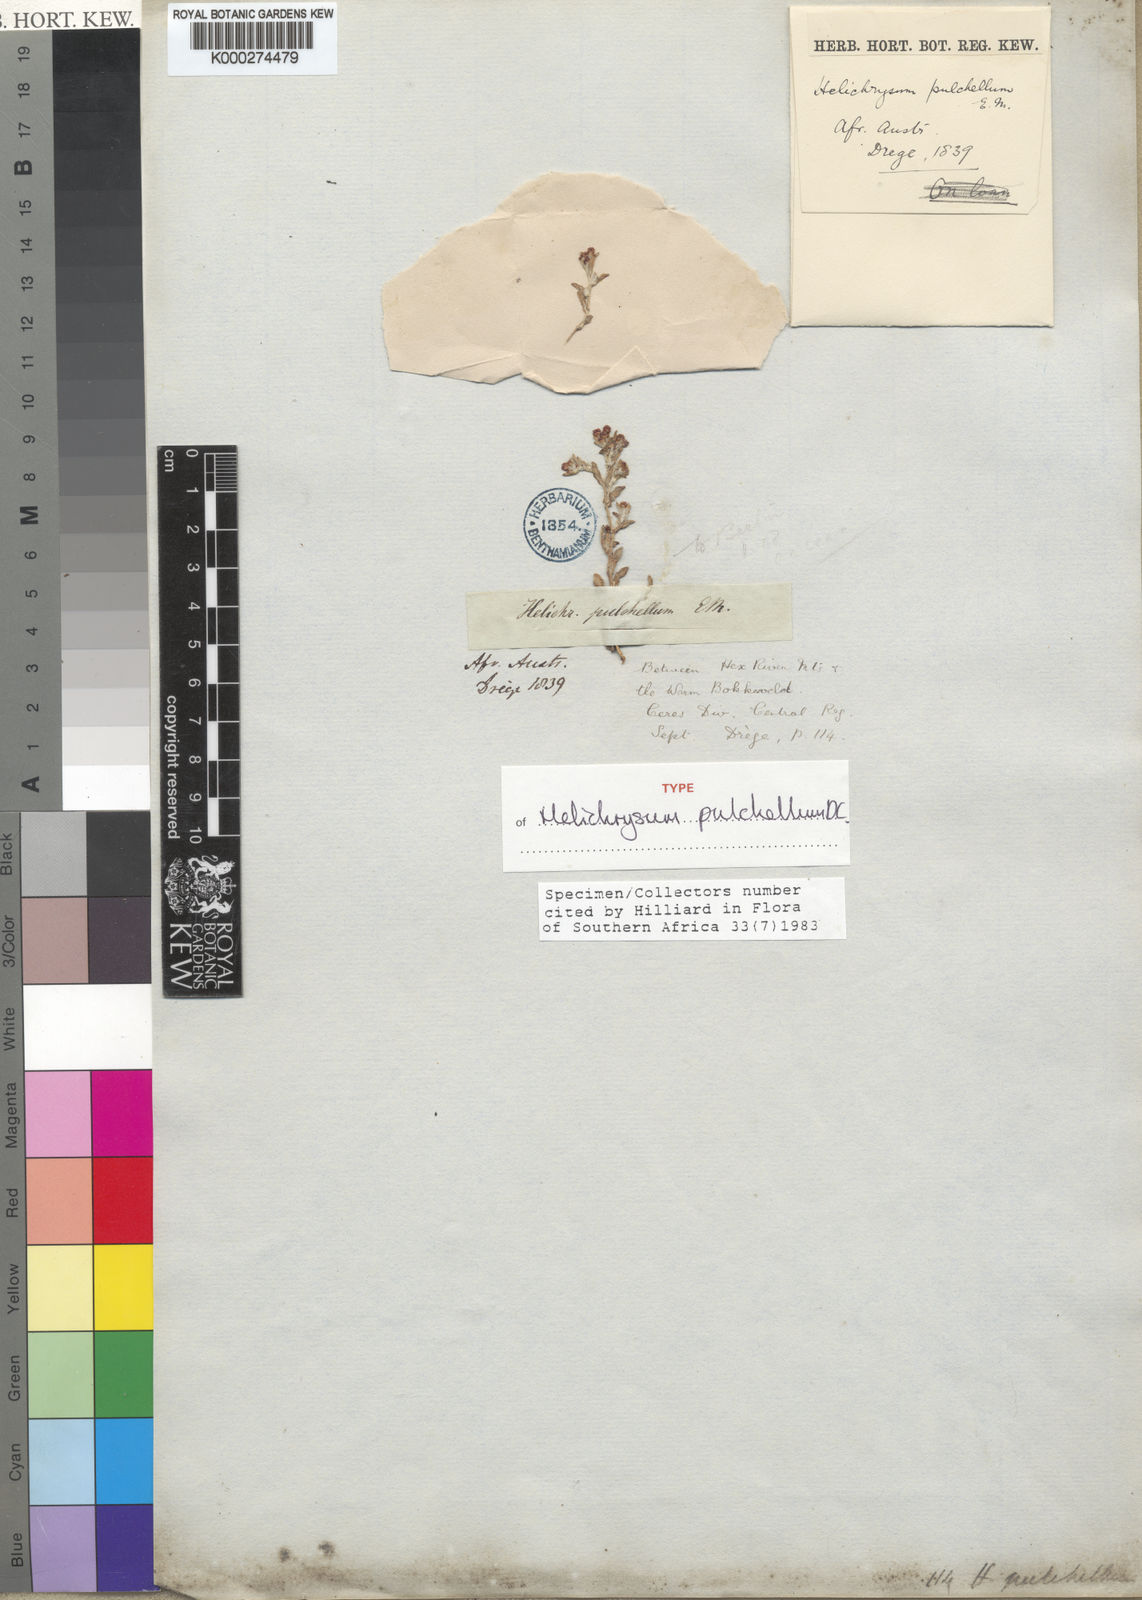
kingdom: Plantae
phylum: Tracheophyta
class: Magnoliopsida
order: Asterales
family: Asteraceae
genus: Helichrysum
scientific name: Helichrysum pulchellum
